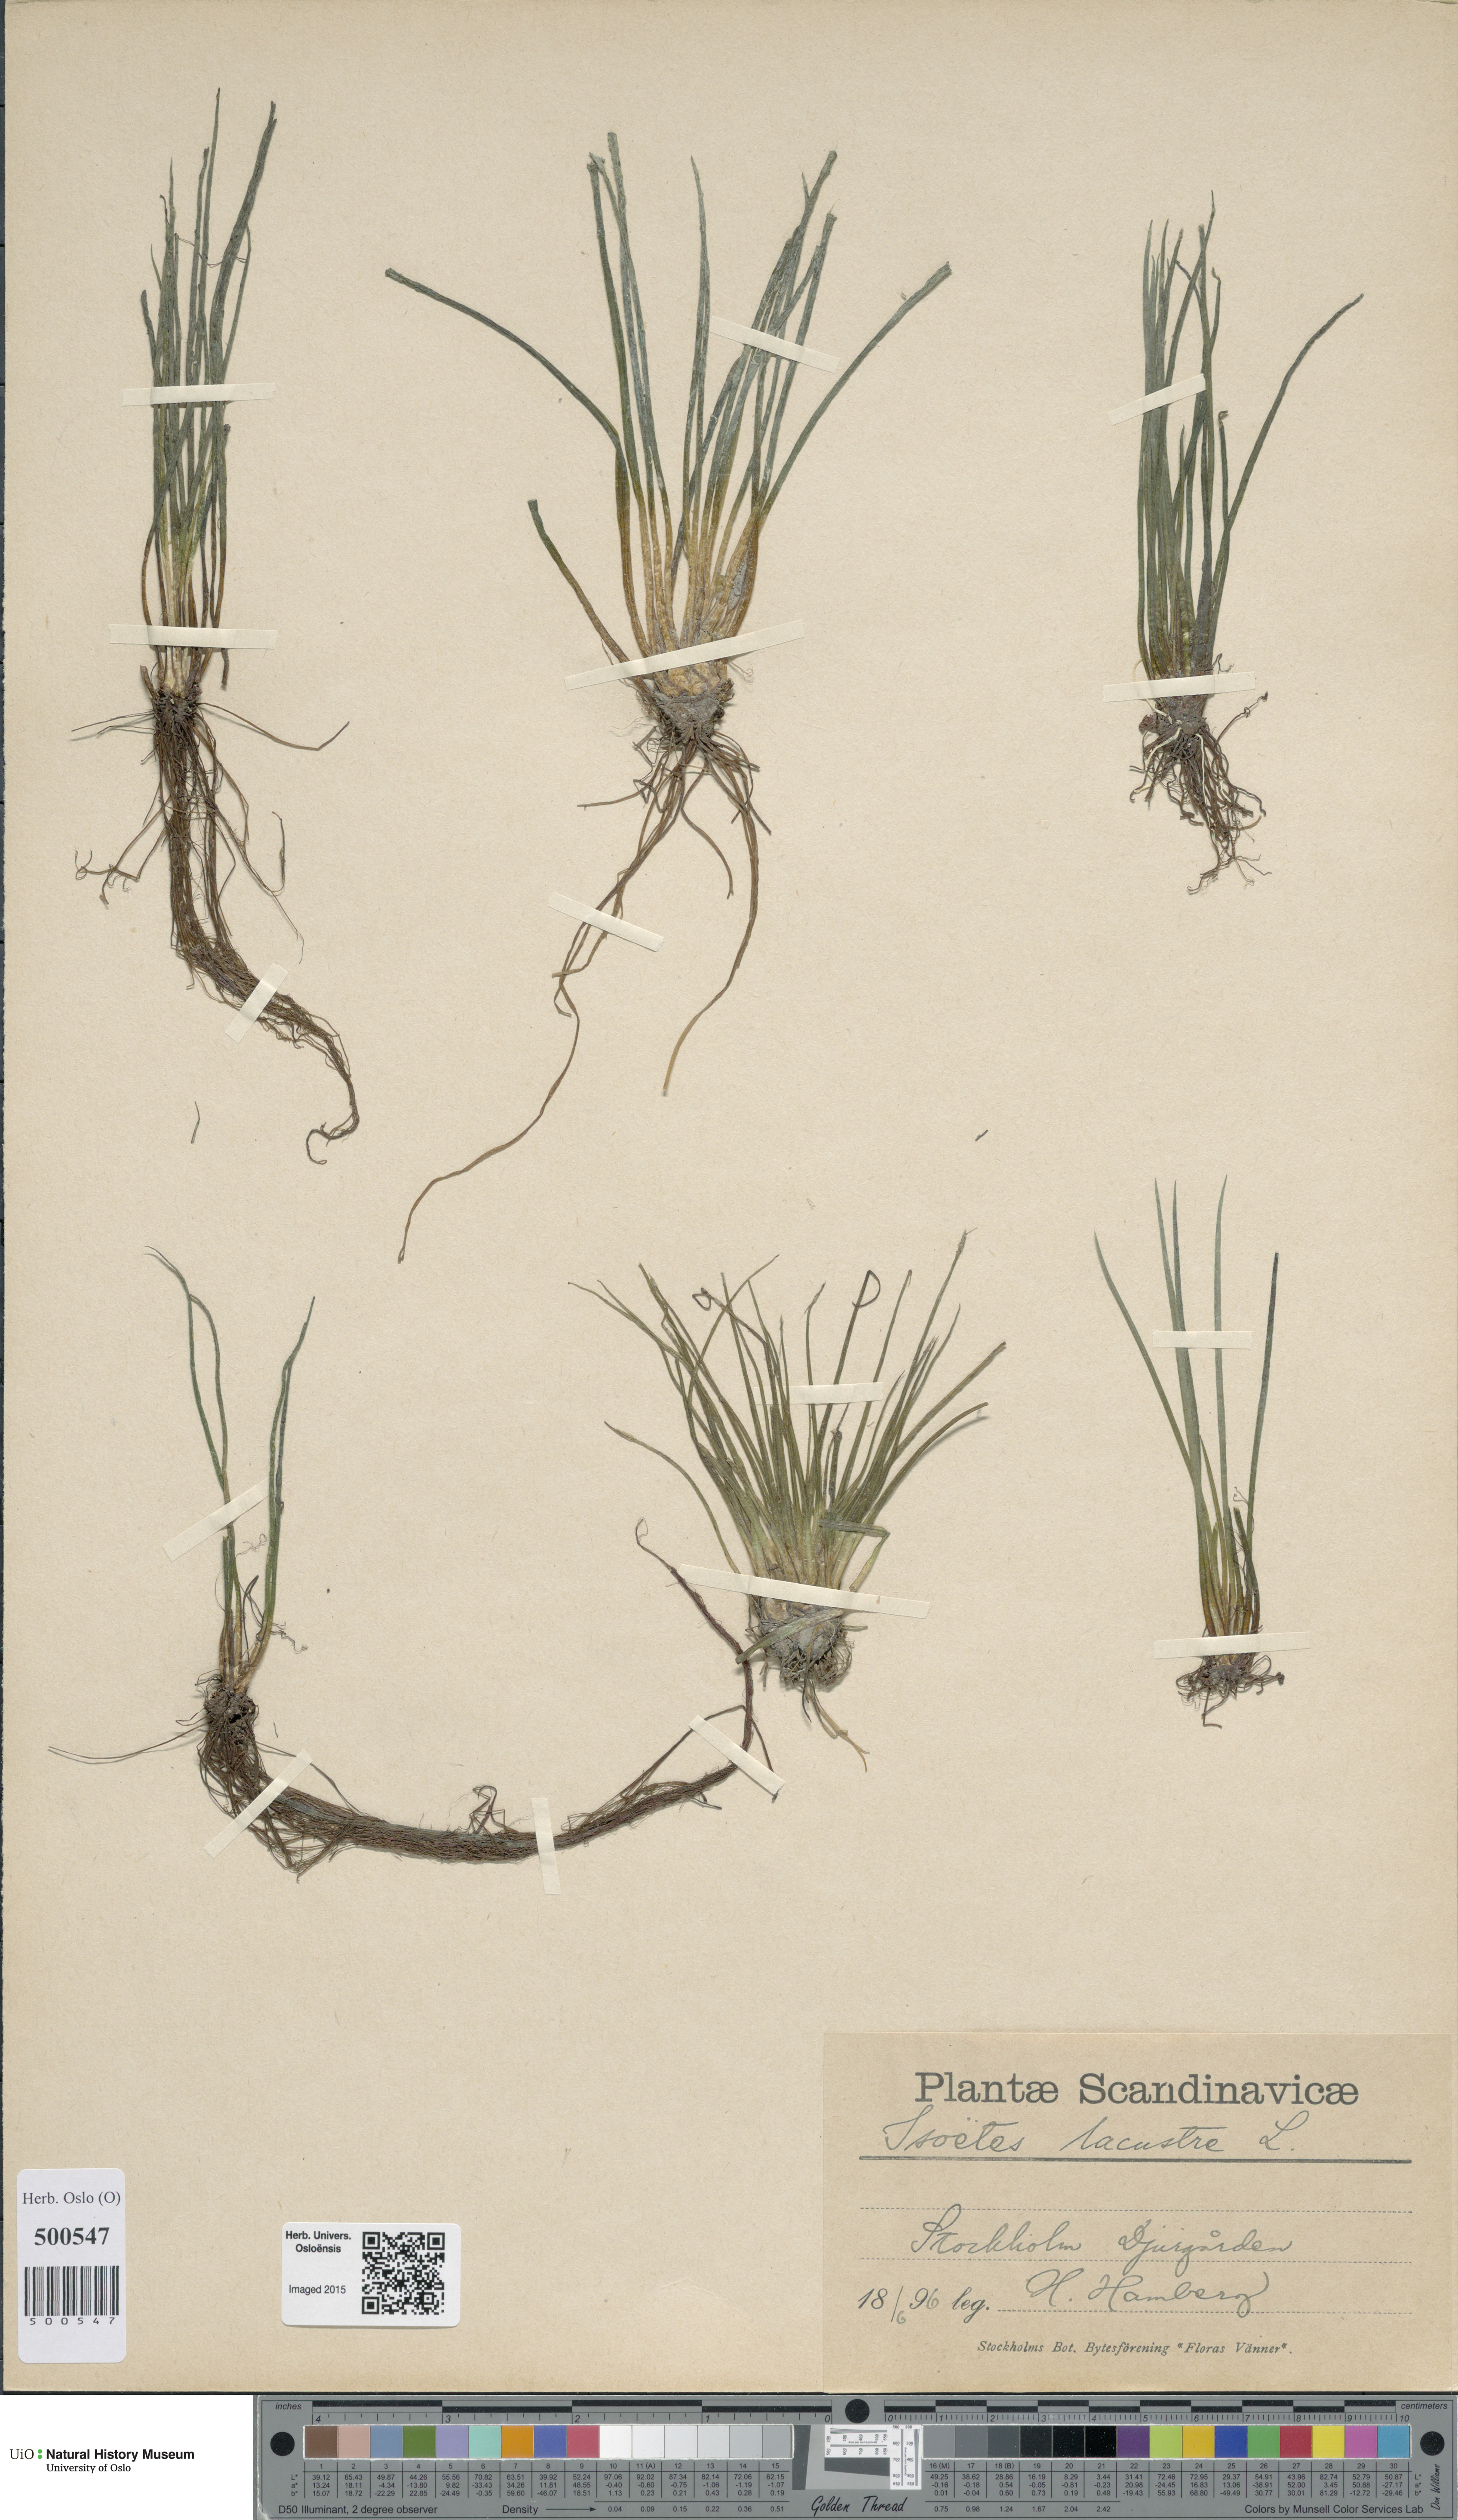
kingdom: Plantae
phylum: Tracheophyta
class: Lycopodiopsida
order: Isoetales
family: Isoetaceae
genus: Isoetes
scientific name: Isoetes lacustris
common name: Common quillwort
